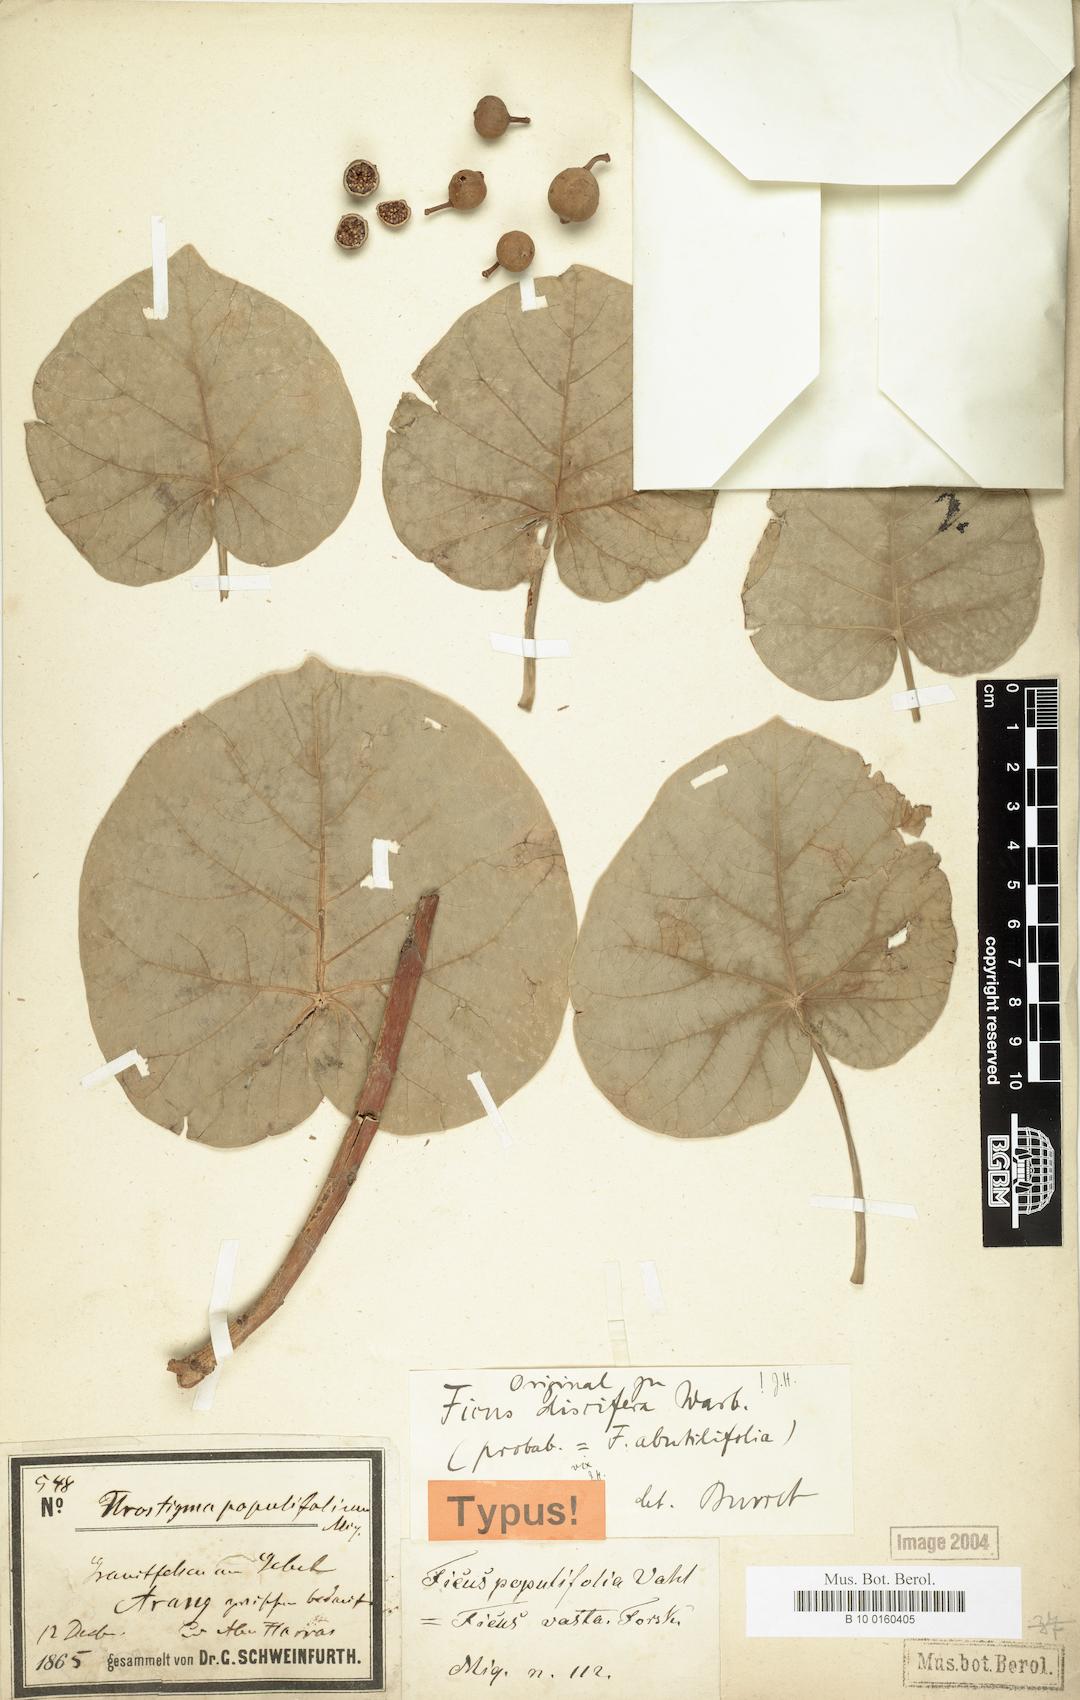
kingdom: Plantae
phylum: Tracheophyta
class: Magnoliopsida
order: Rosales
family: Moraceae
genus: Ficus
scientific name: Ficus abutilifolia
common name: Large-leaved rock fig
